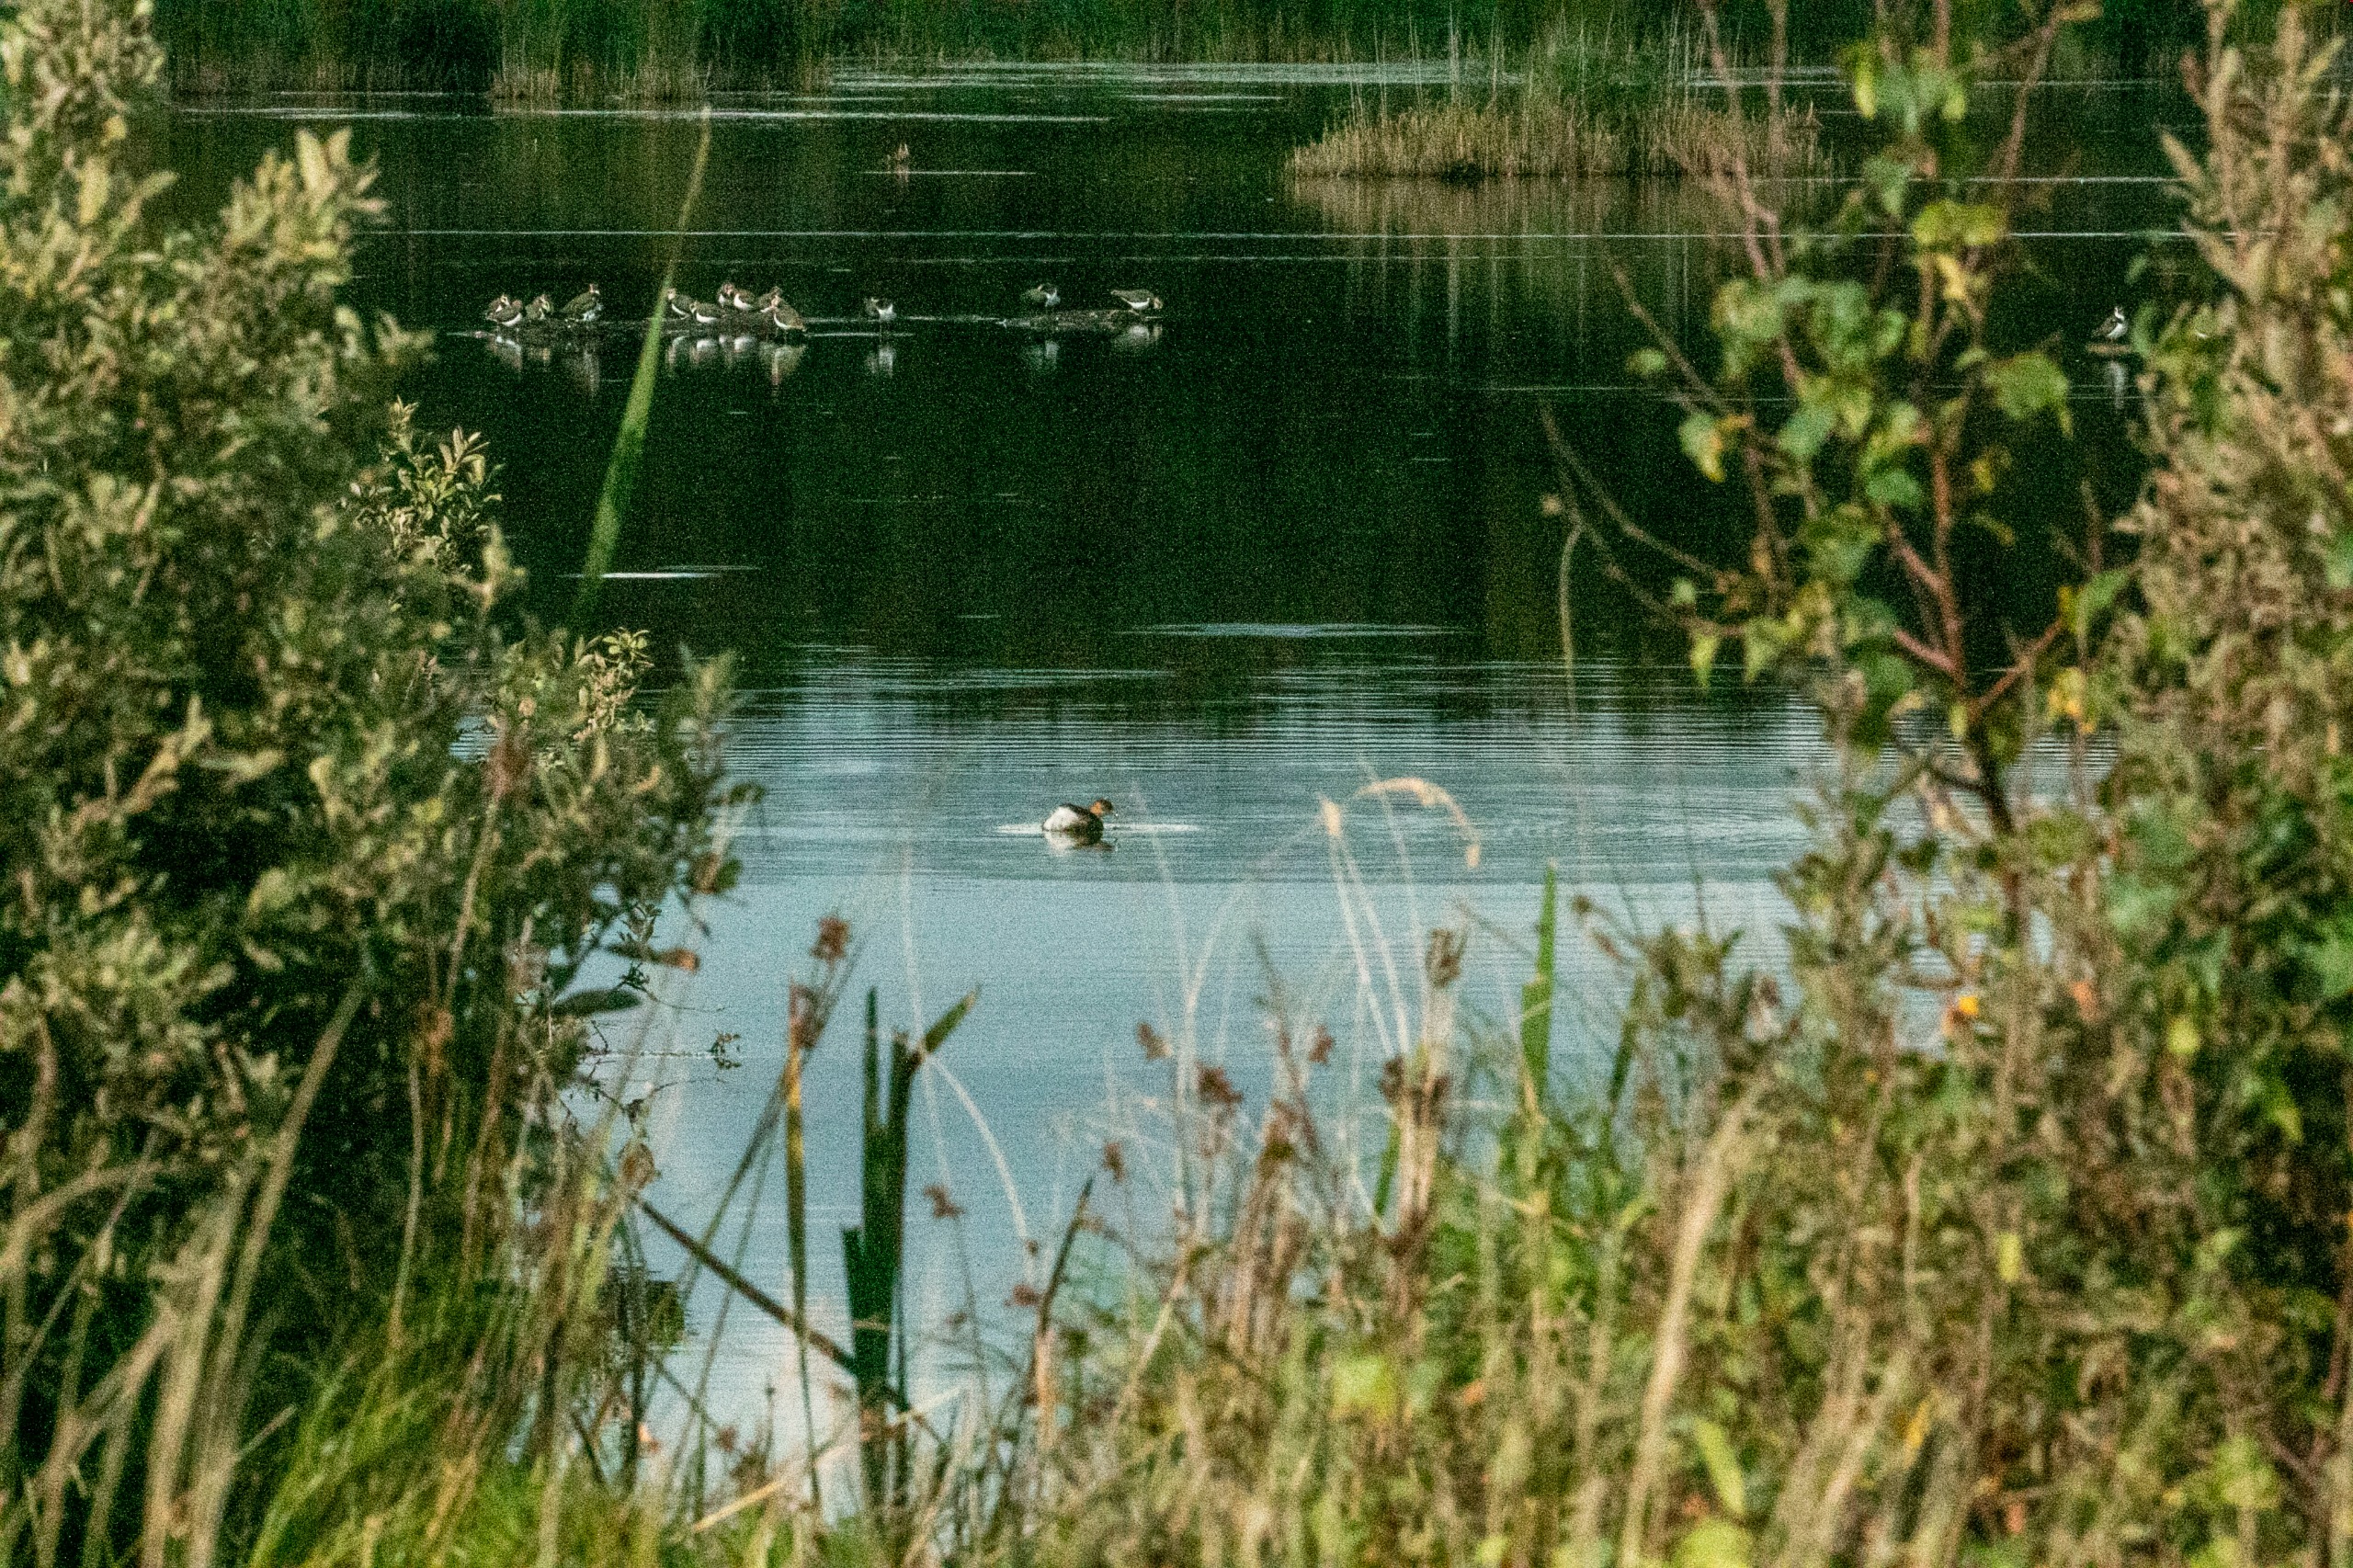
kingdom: Animalia
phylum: Chordata
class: Aves
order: Podicipediformes
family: Podicipedidae
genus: Tachybaptus
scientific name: Tachybaptus ruficollis
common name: Lille lappedykker
